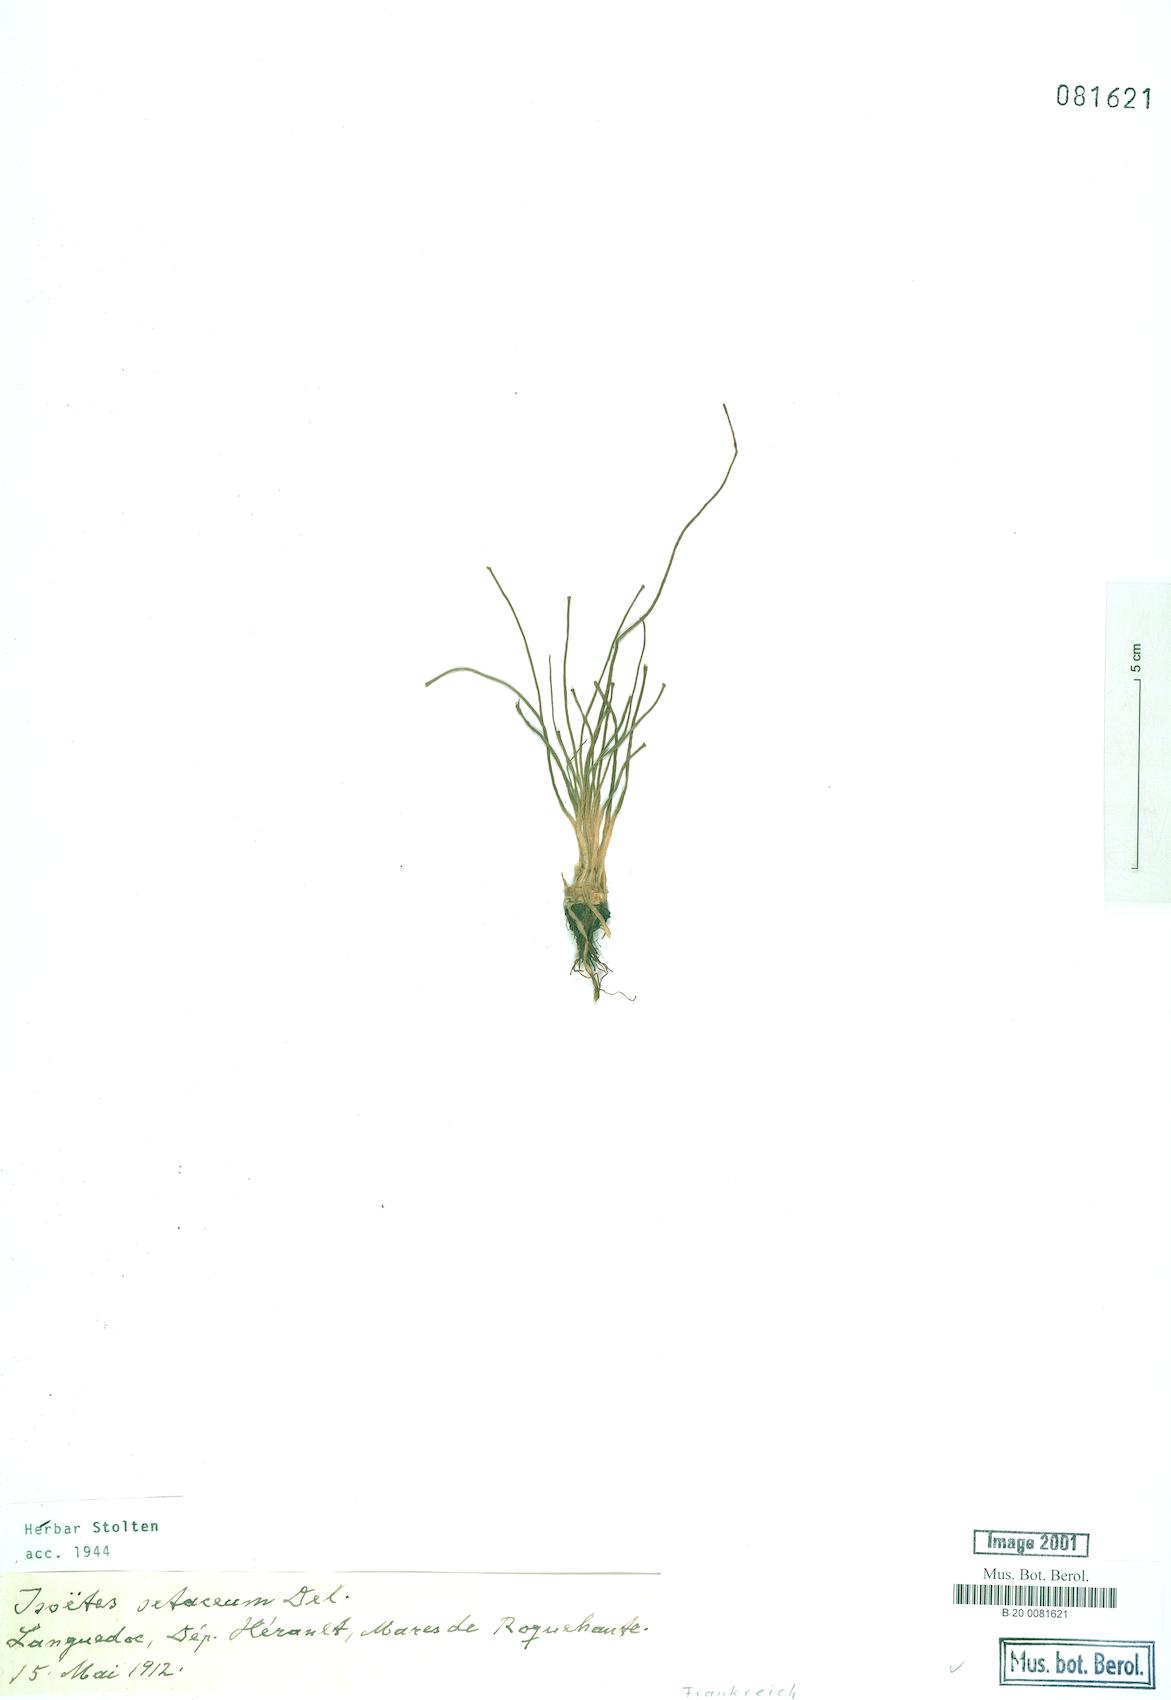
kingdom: Plantae
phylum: Tracheophyta
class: Lycopodiopsida
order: Isoetales
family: Isoetaceae
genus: Isoetes
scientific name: Isoetes lacustris
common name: Common quillwort
